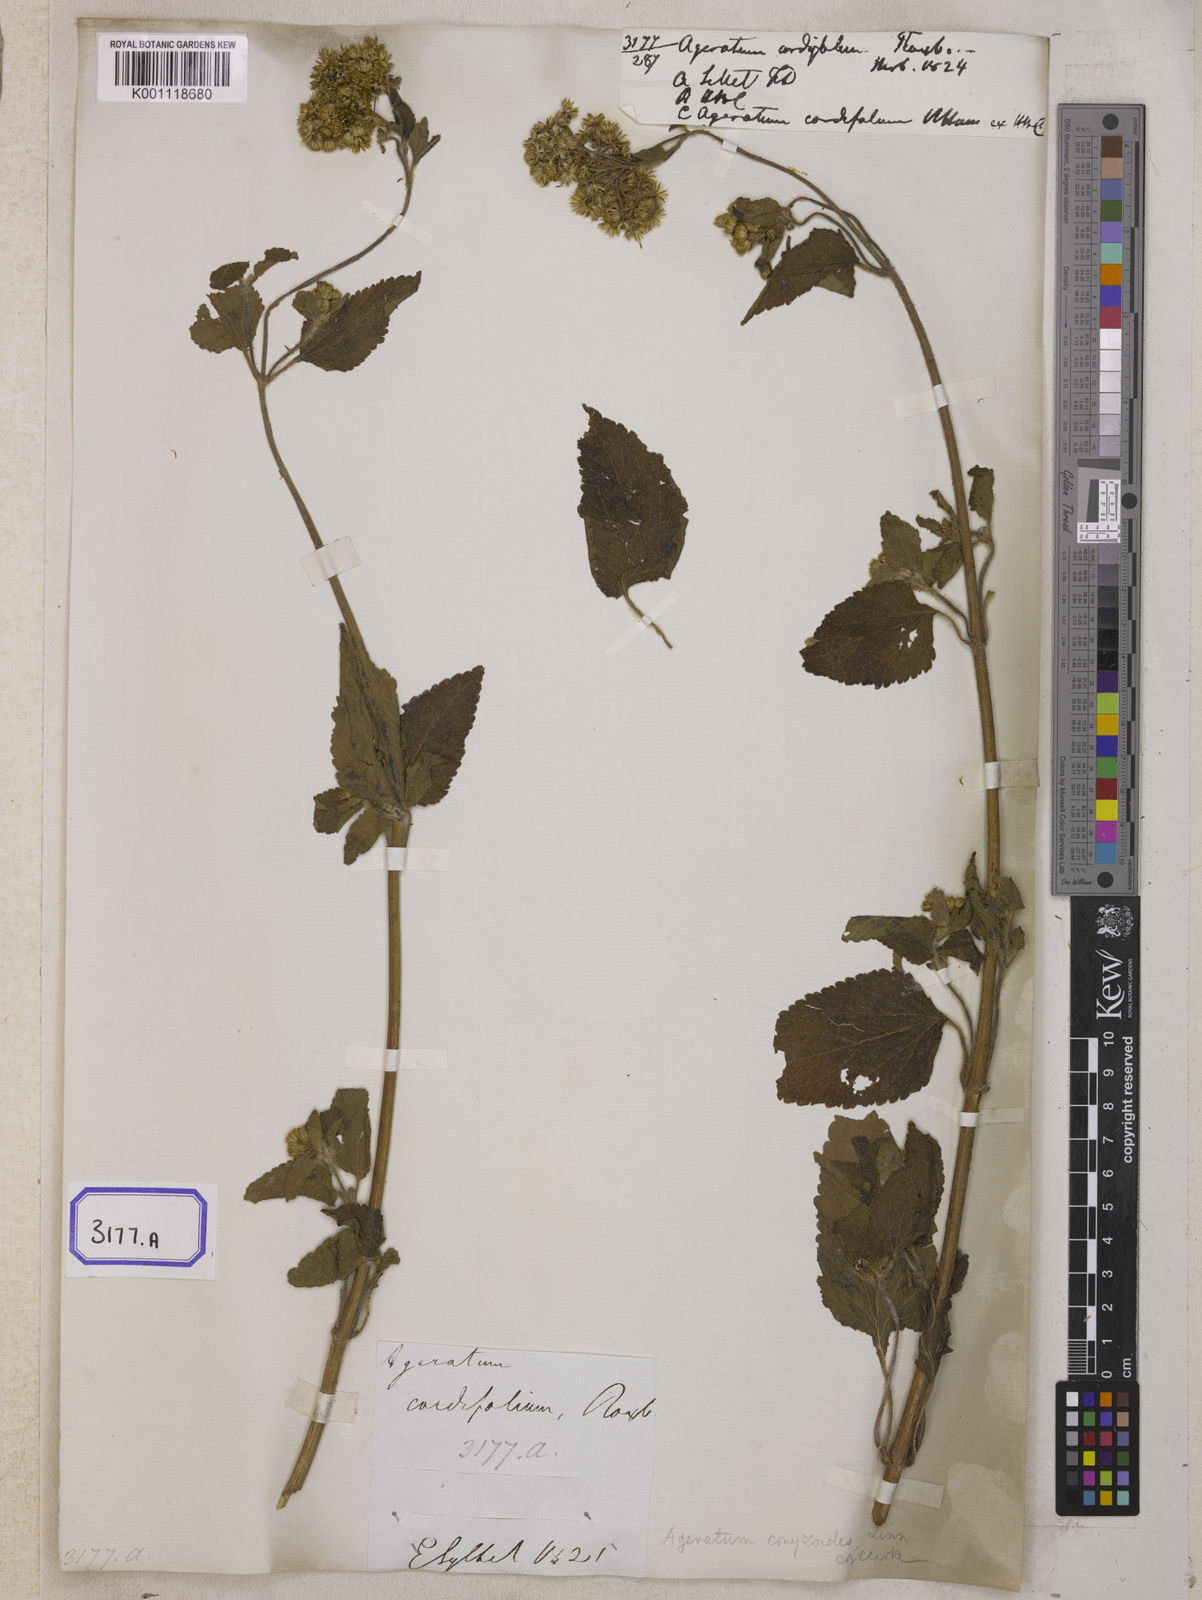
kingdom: Plantae
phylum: Tracheophyta
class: Magnoliopsida
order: Asterales
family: Asteraceae
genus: Ageratum
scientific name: Ageratum conyzoides
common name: Tropical whiteweed
